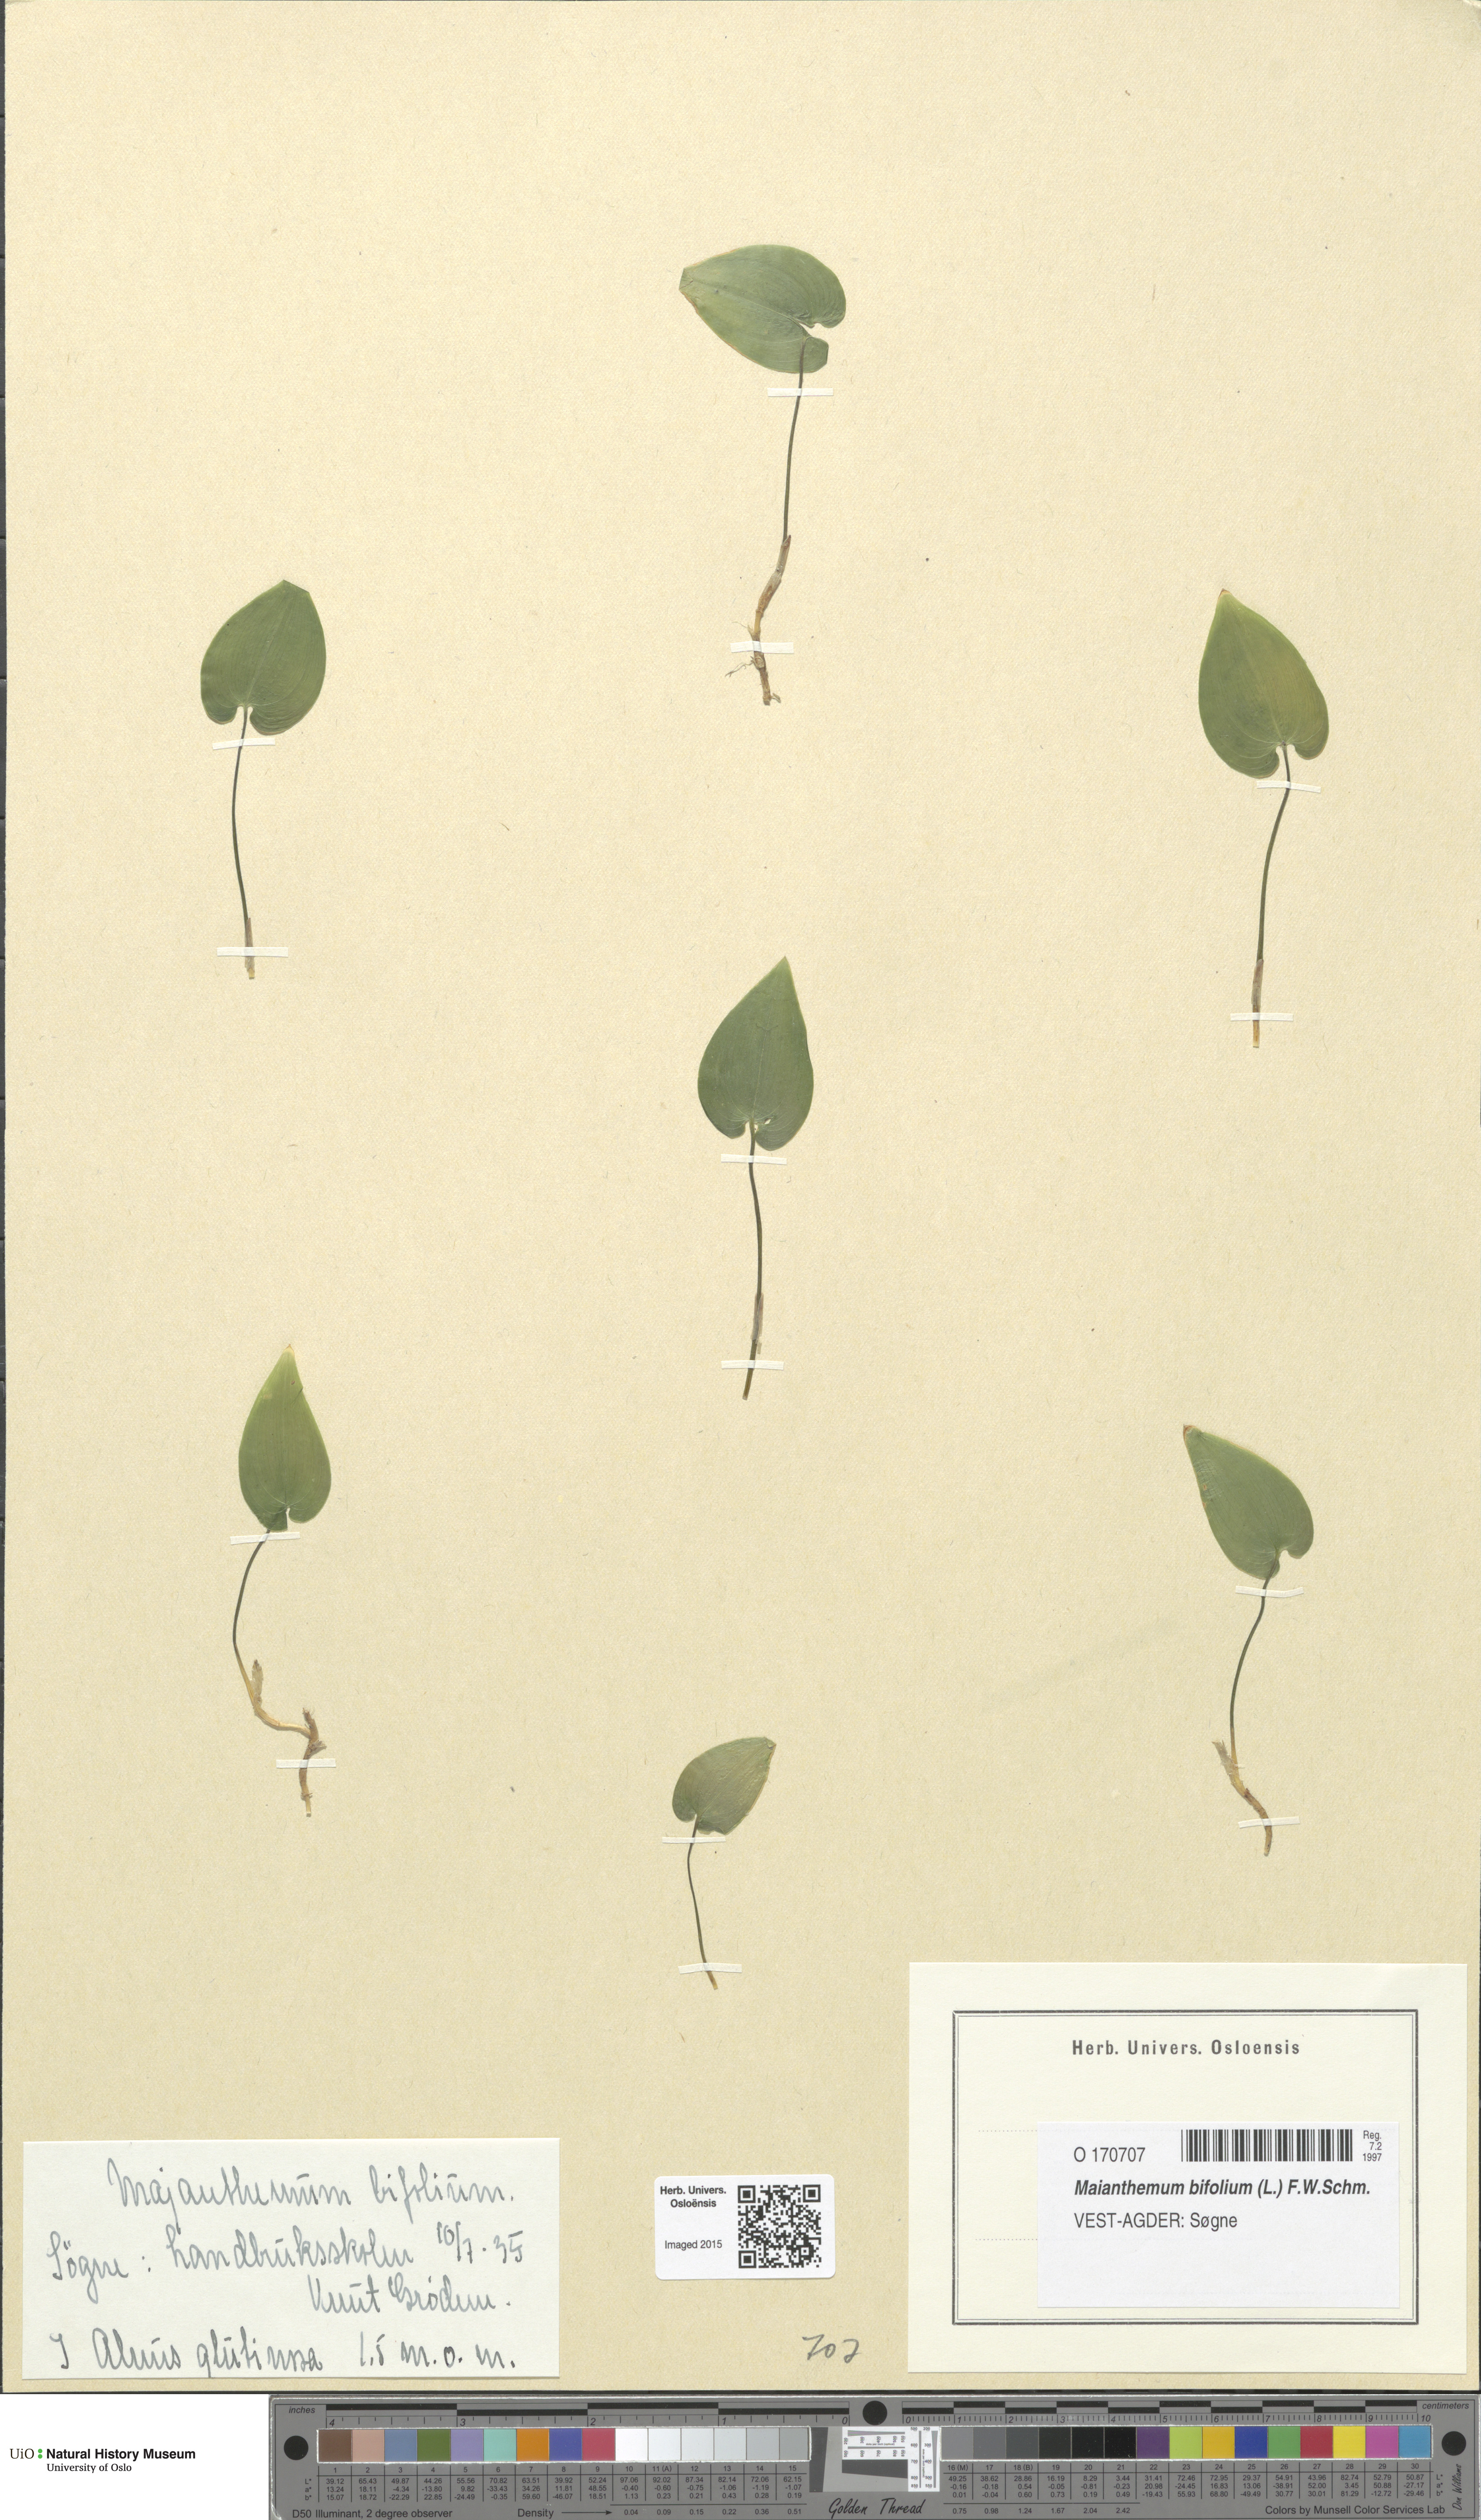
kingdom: Plantae
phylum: Tracheophyta
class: Liliopsida
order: Asparagales
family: Asparagaceae
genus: Maianthemum
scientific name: Maianthemum bifolium
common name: May lily
